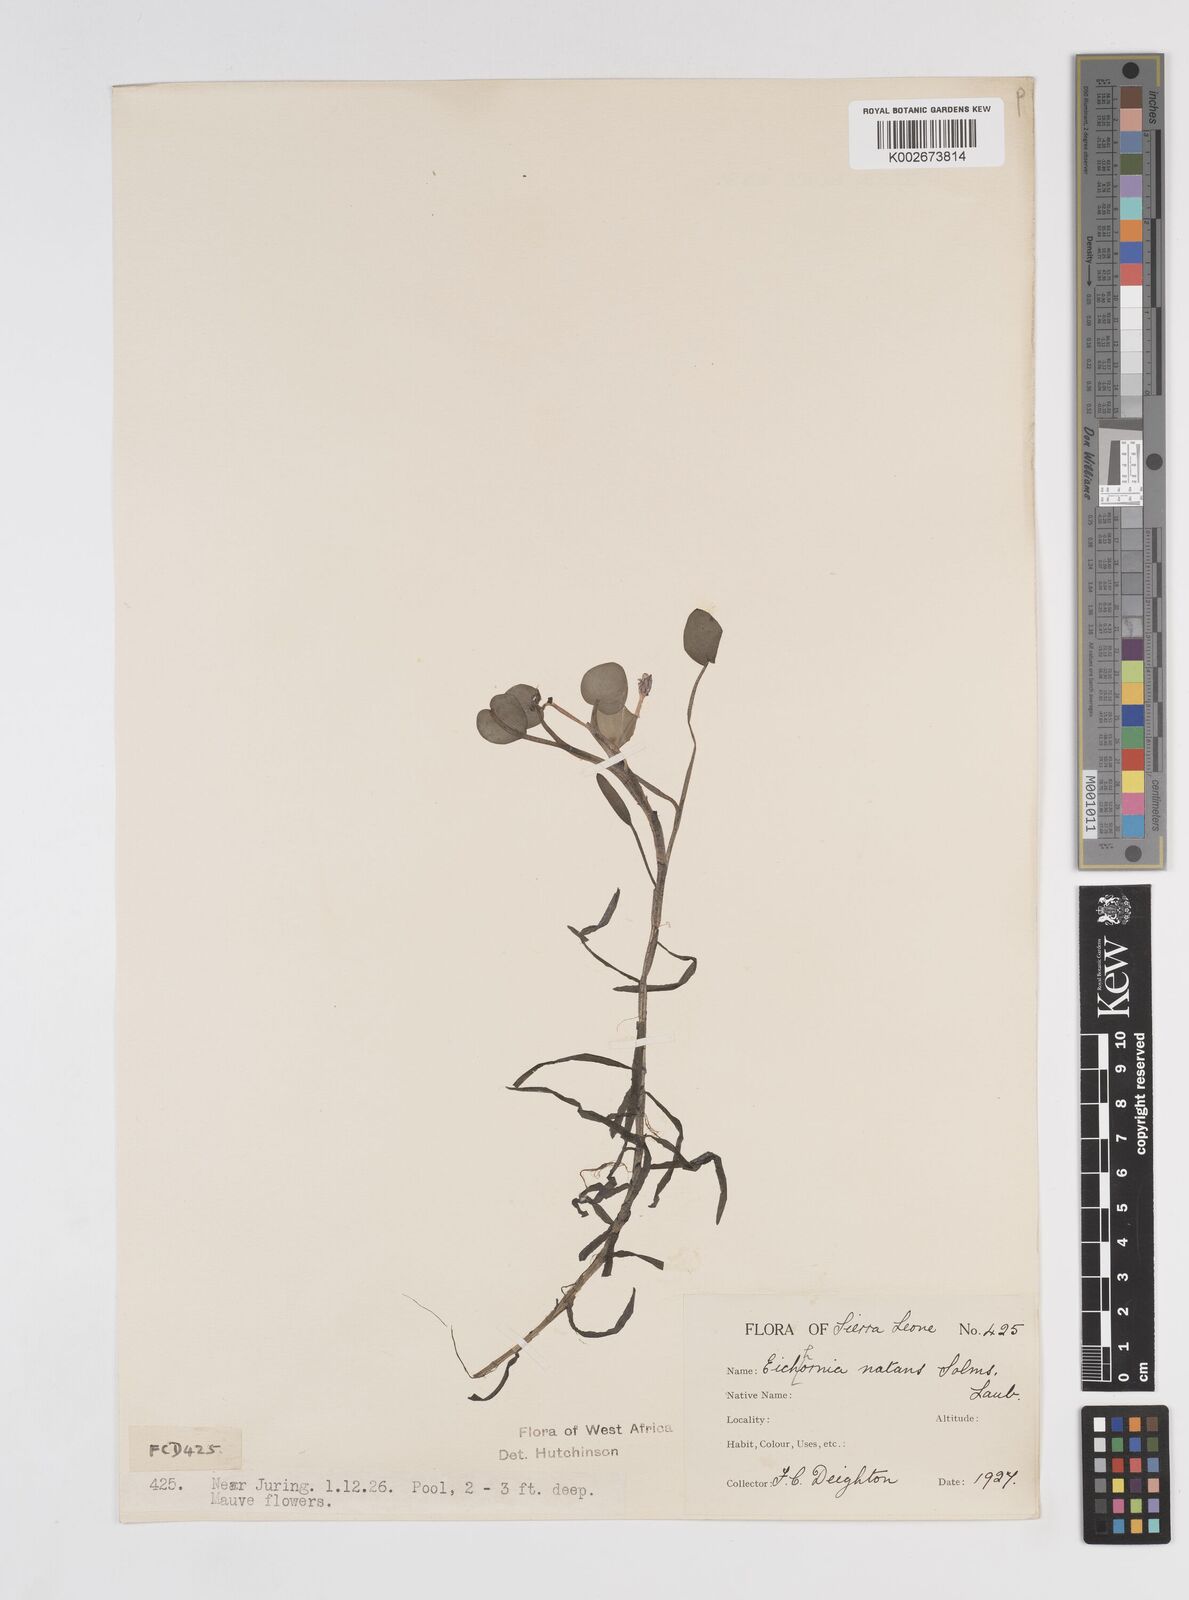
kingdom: Plantae
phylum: Tracheophyta
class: Liliopsida
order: Commelinales
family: Pontederiaceae
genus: Pontederia
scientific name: Pontederia diversifolia
